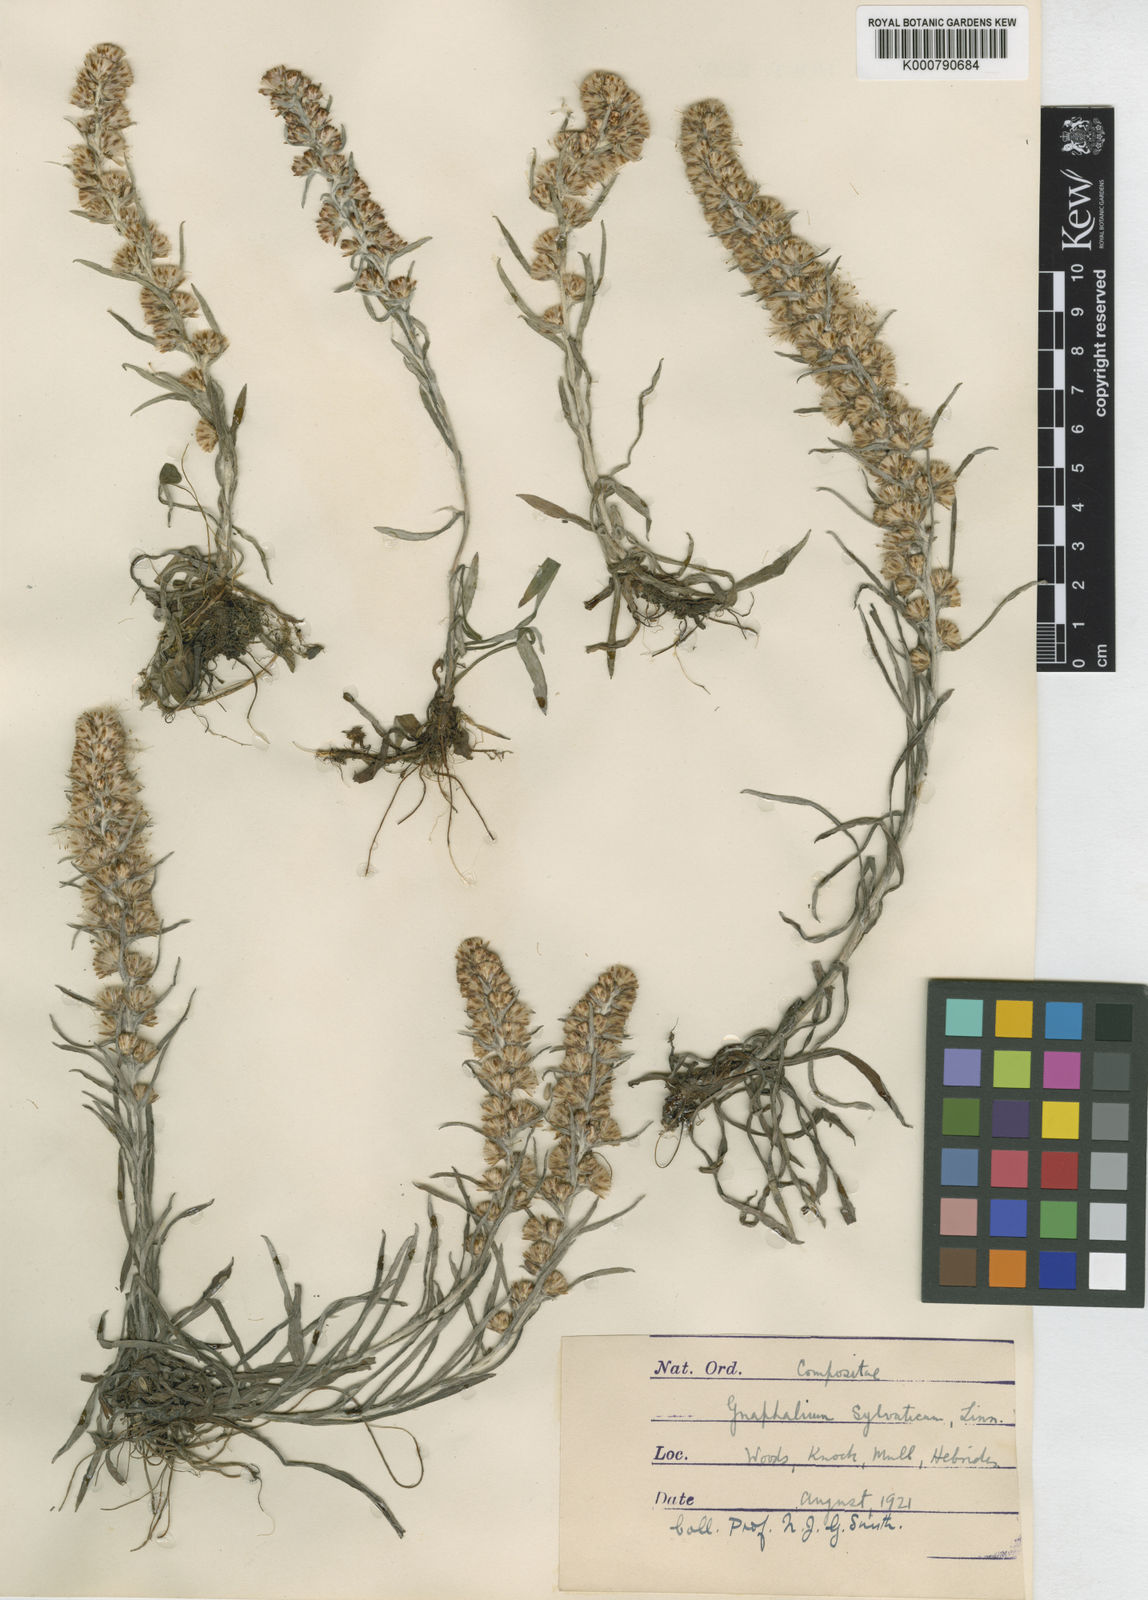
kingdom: Plantae
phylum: Tracheophyta
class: Magnoliopsida
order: Asterales
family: Asteraceae
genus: Omalotheca
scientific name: Omalotheca sylvatica
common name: Heath cudweed
